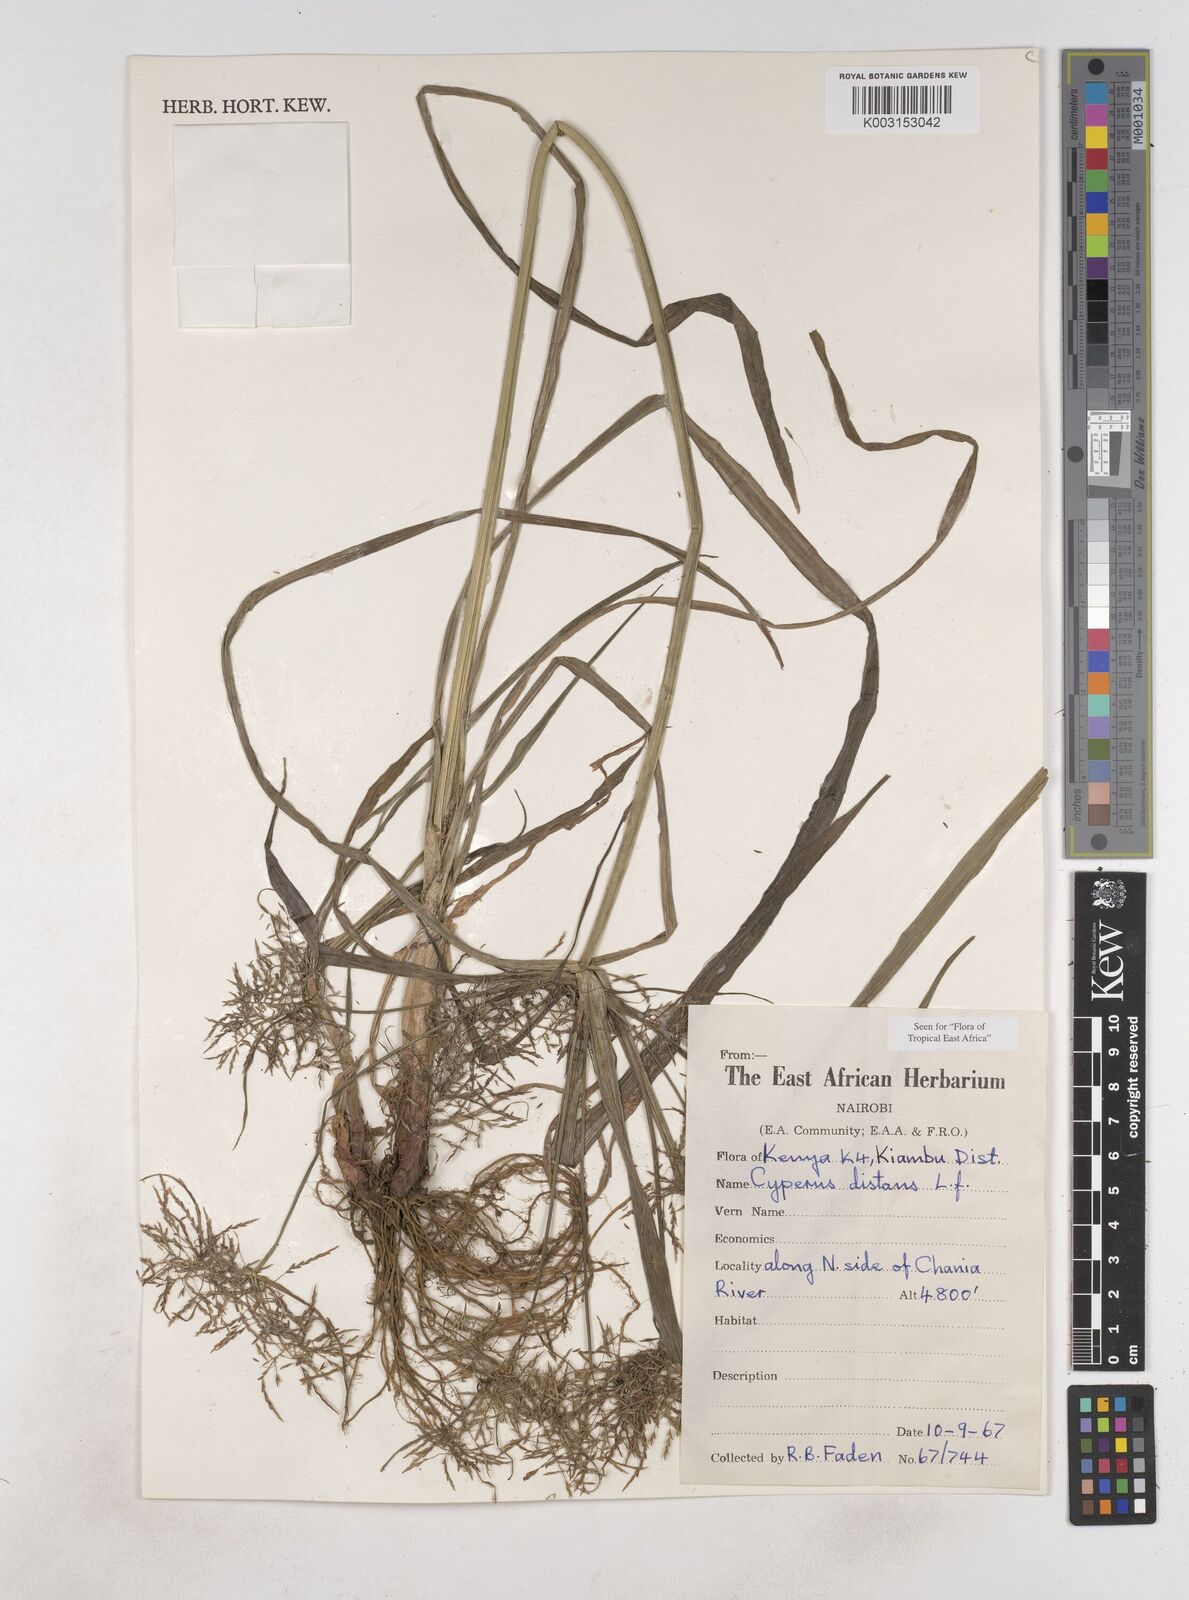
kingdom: Plantae
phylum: Tracheophyta
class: Liliopsida
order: Poales
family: Cyperaceae
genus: Cyperus
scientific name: Cyperus distans
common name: Slender cyperus
